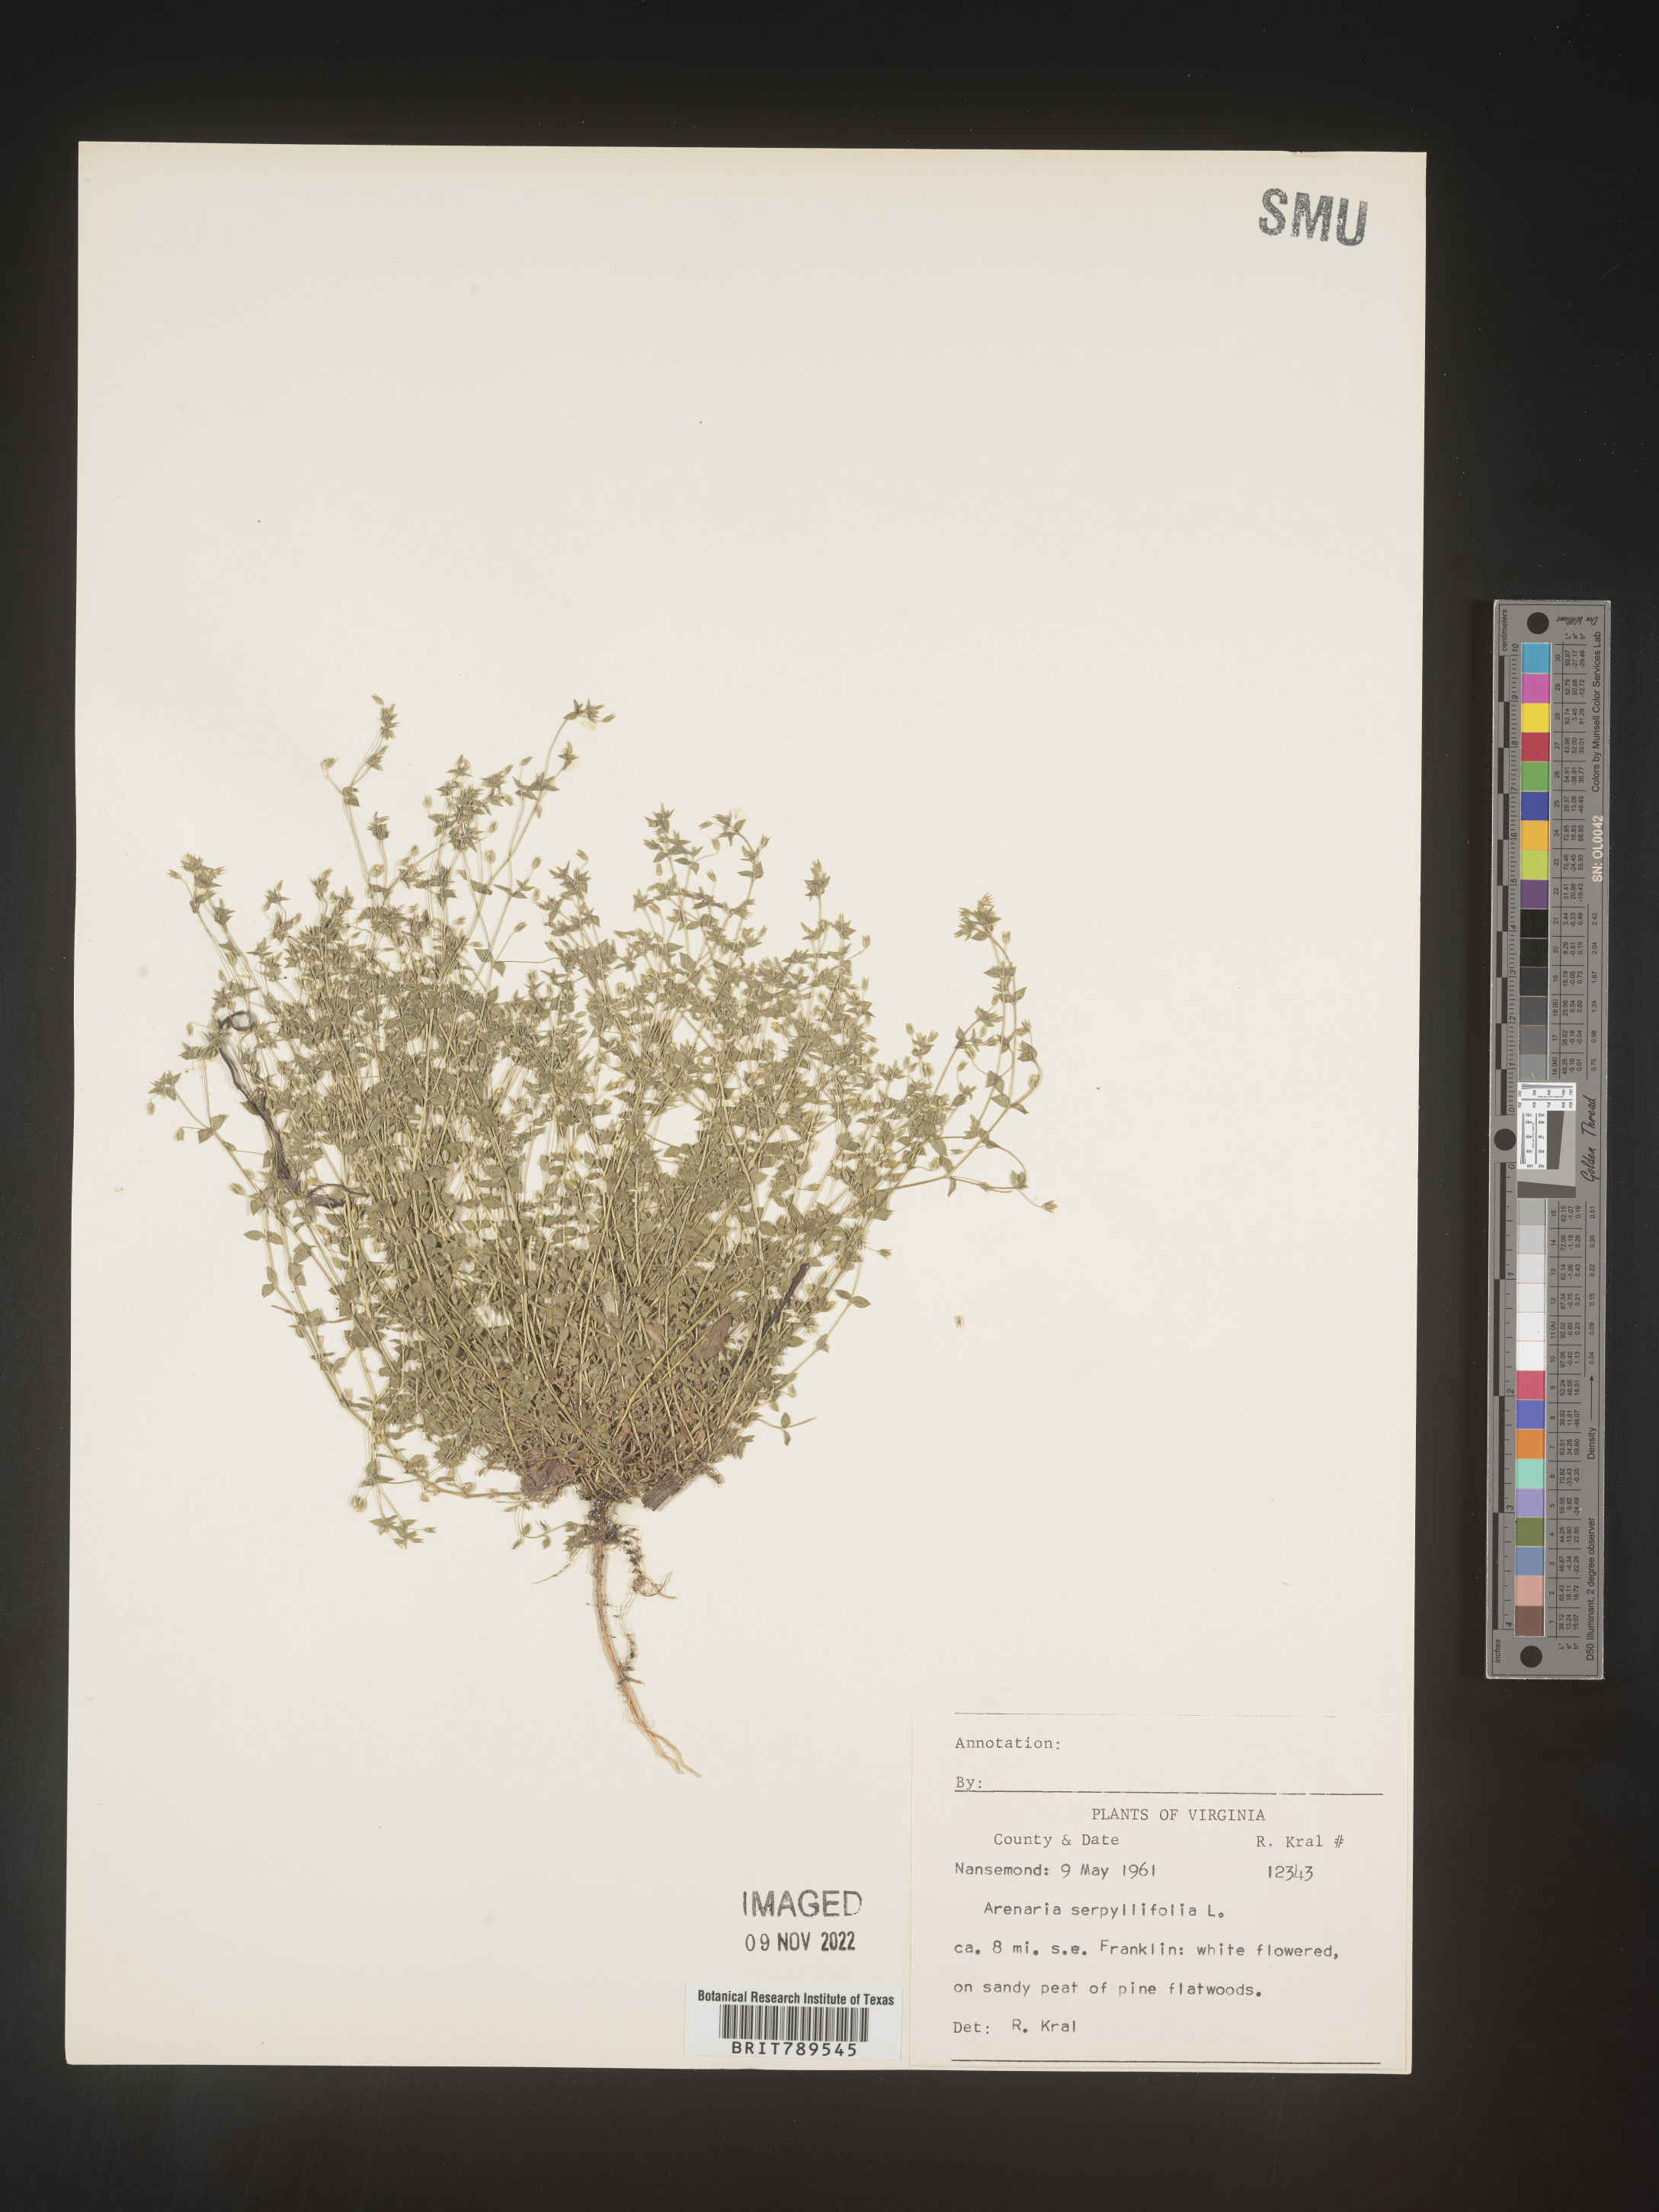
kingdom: Plantae
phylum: Tracheophyta
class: Magnoliopsida
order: Caryophyllales
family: Caryophyllaceae
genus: Arenaria
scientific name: Arenaria serpyllifolia
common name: Thyme-leaved sandwort
